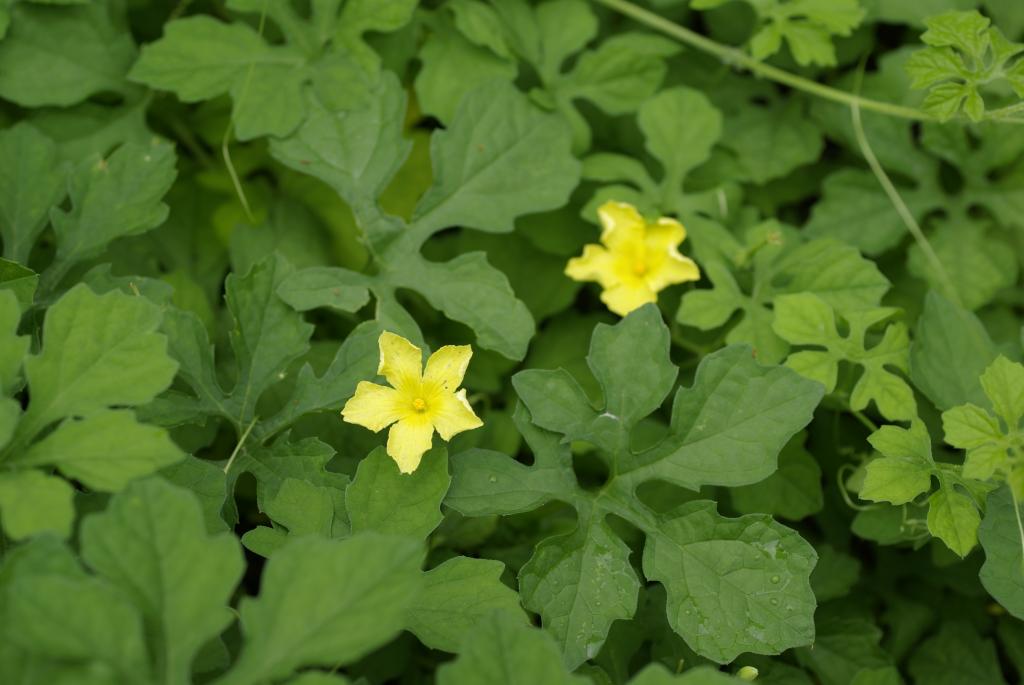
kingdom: Plantae
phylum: Tracheophyta
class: Magnoliopsida
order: Cucurbitales
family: Cucurbitaceae
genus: Momordica
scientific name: Momordica charantia
